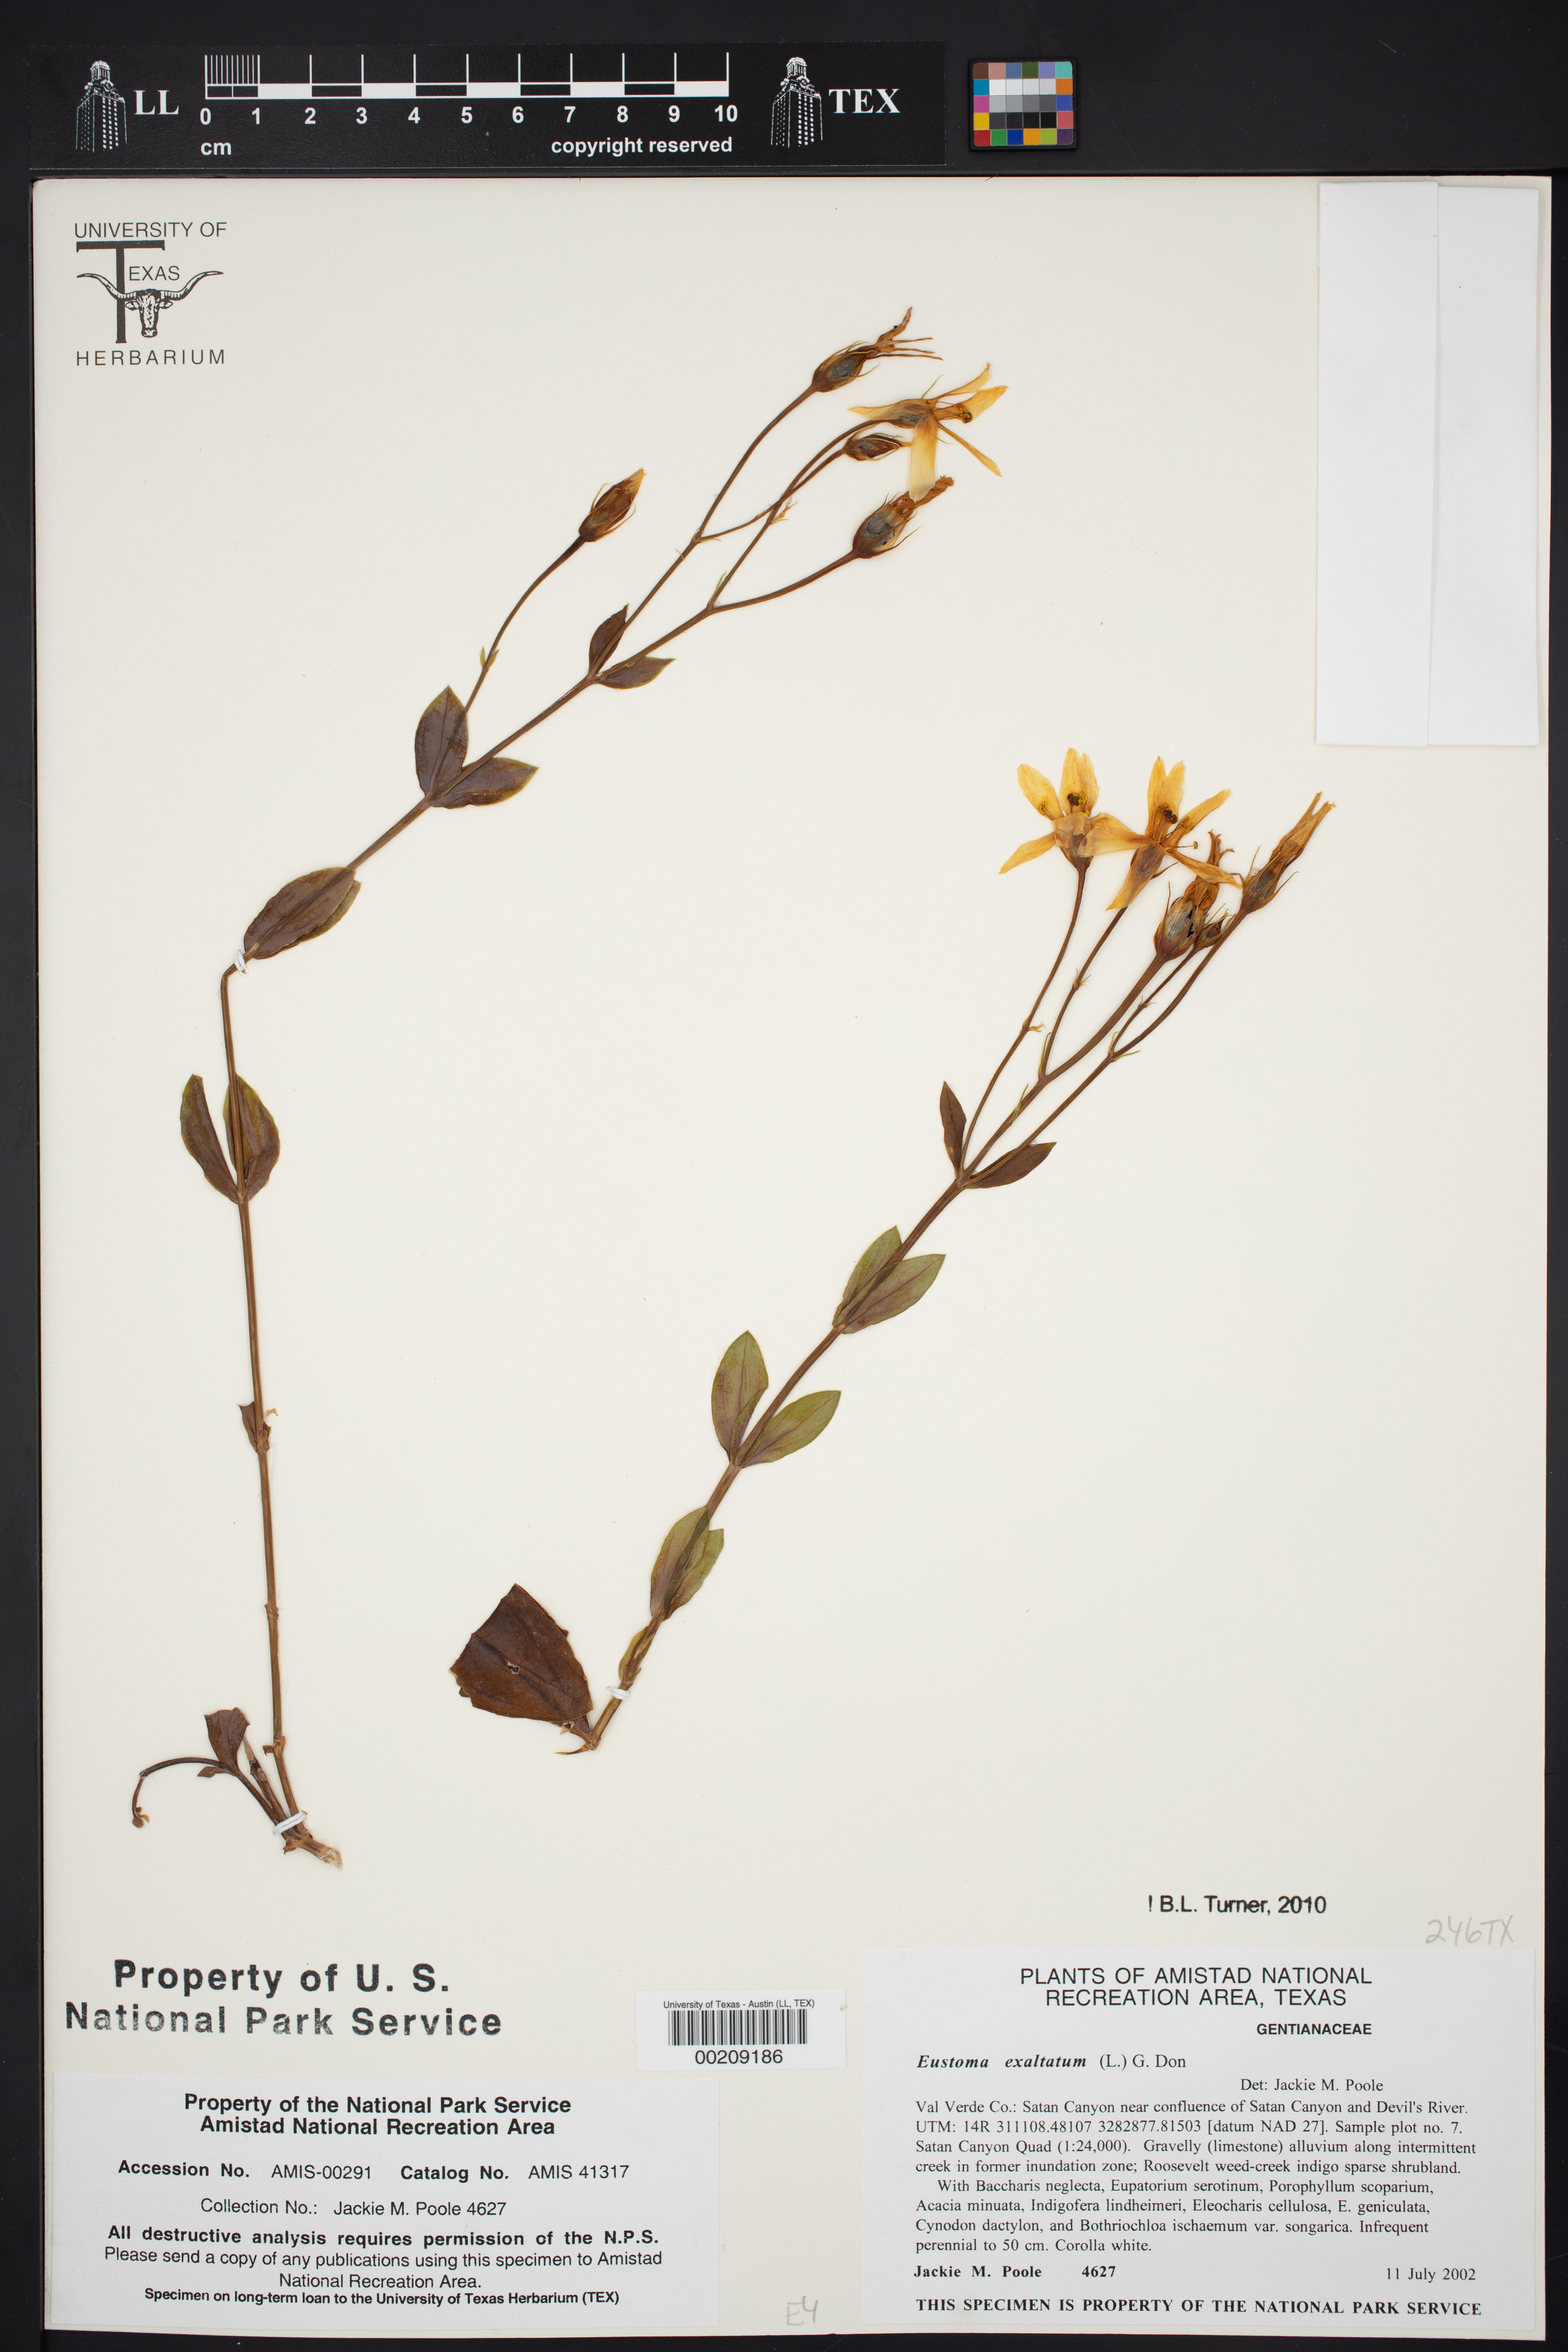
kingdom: Plantae
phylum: Tracheophyta
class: Magnoliopsida
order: Gentianales
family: Gentianaceae
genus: Eustoma
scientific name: Eustoma exaltatum
